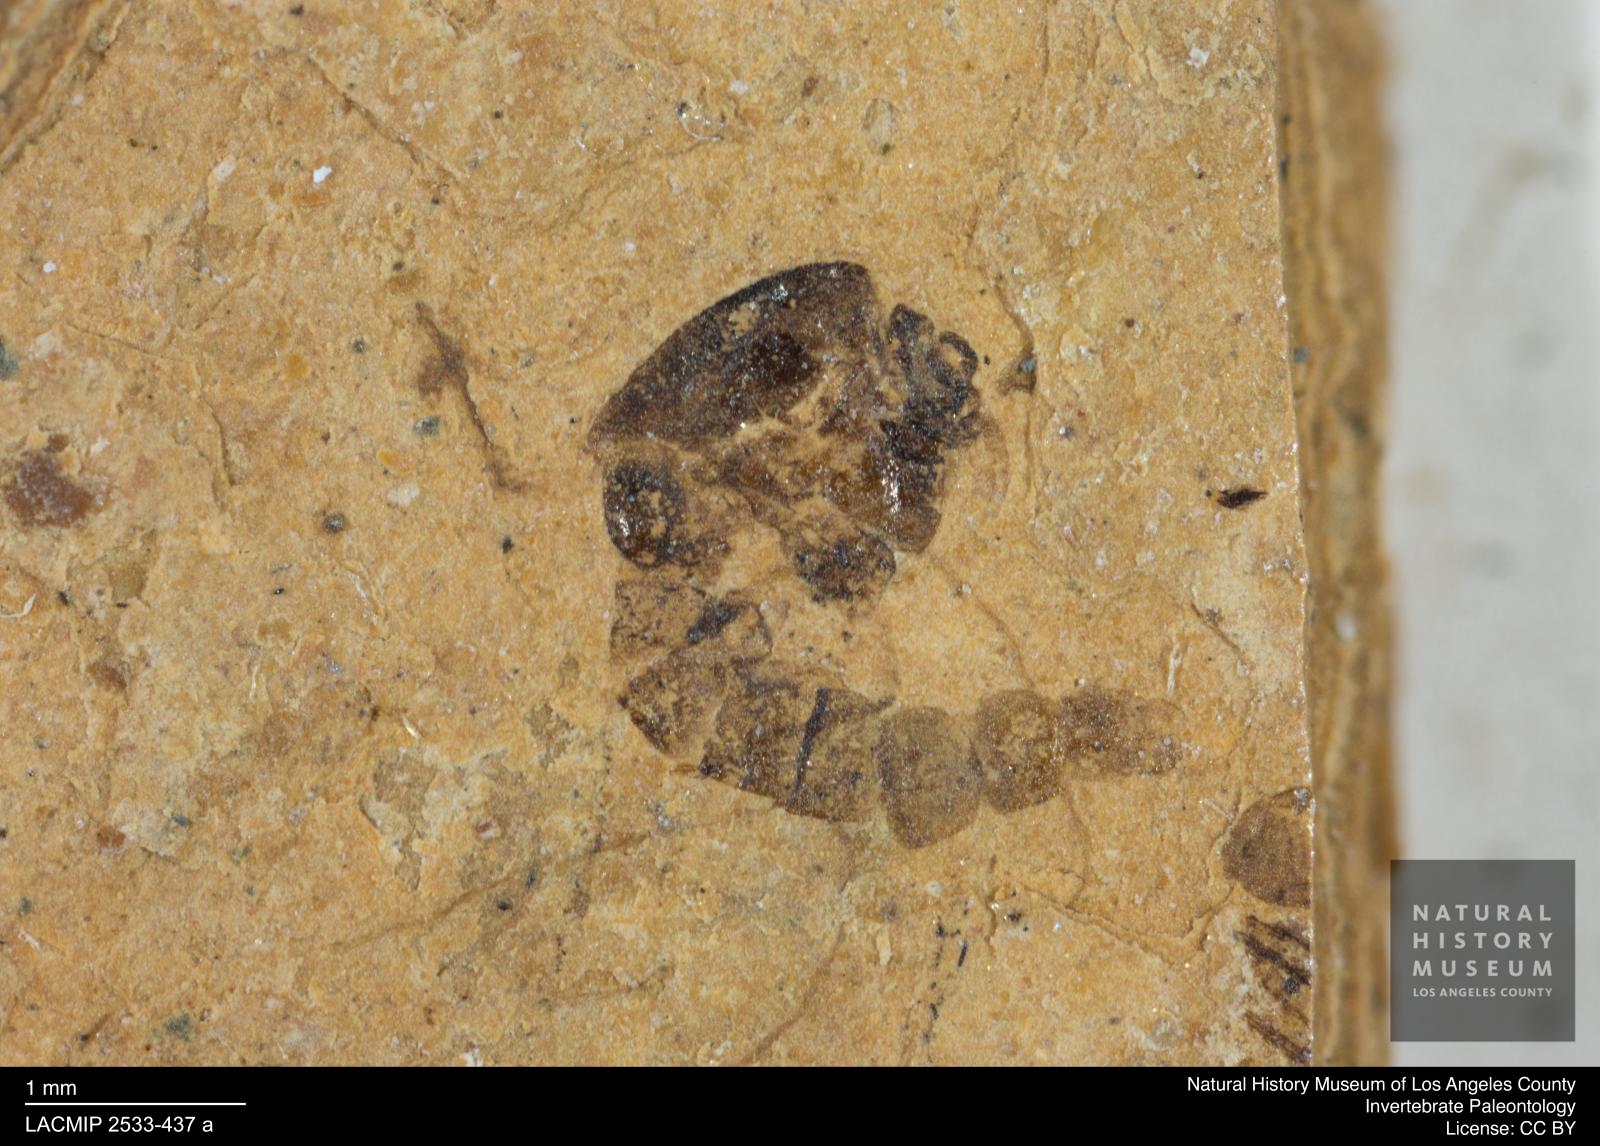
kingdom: Animalia
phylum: Arthropoda
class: Insecta
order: Diptera
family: Chironomidae
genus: Tanypus
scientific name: Tanypus thienemanni
